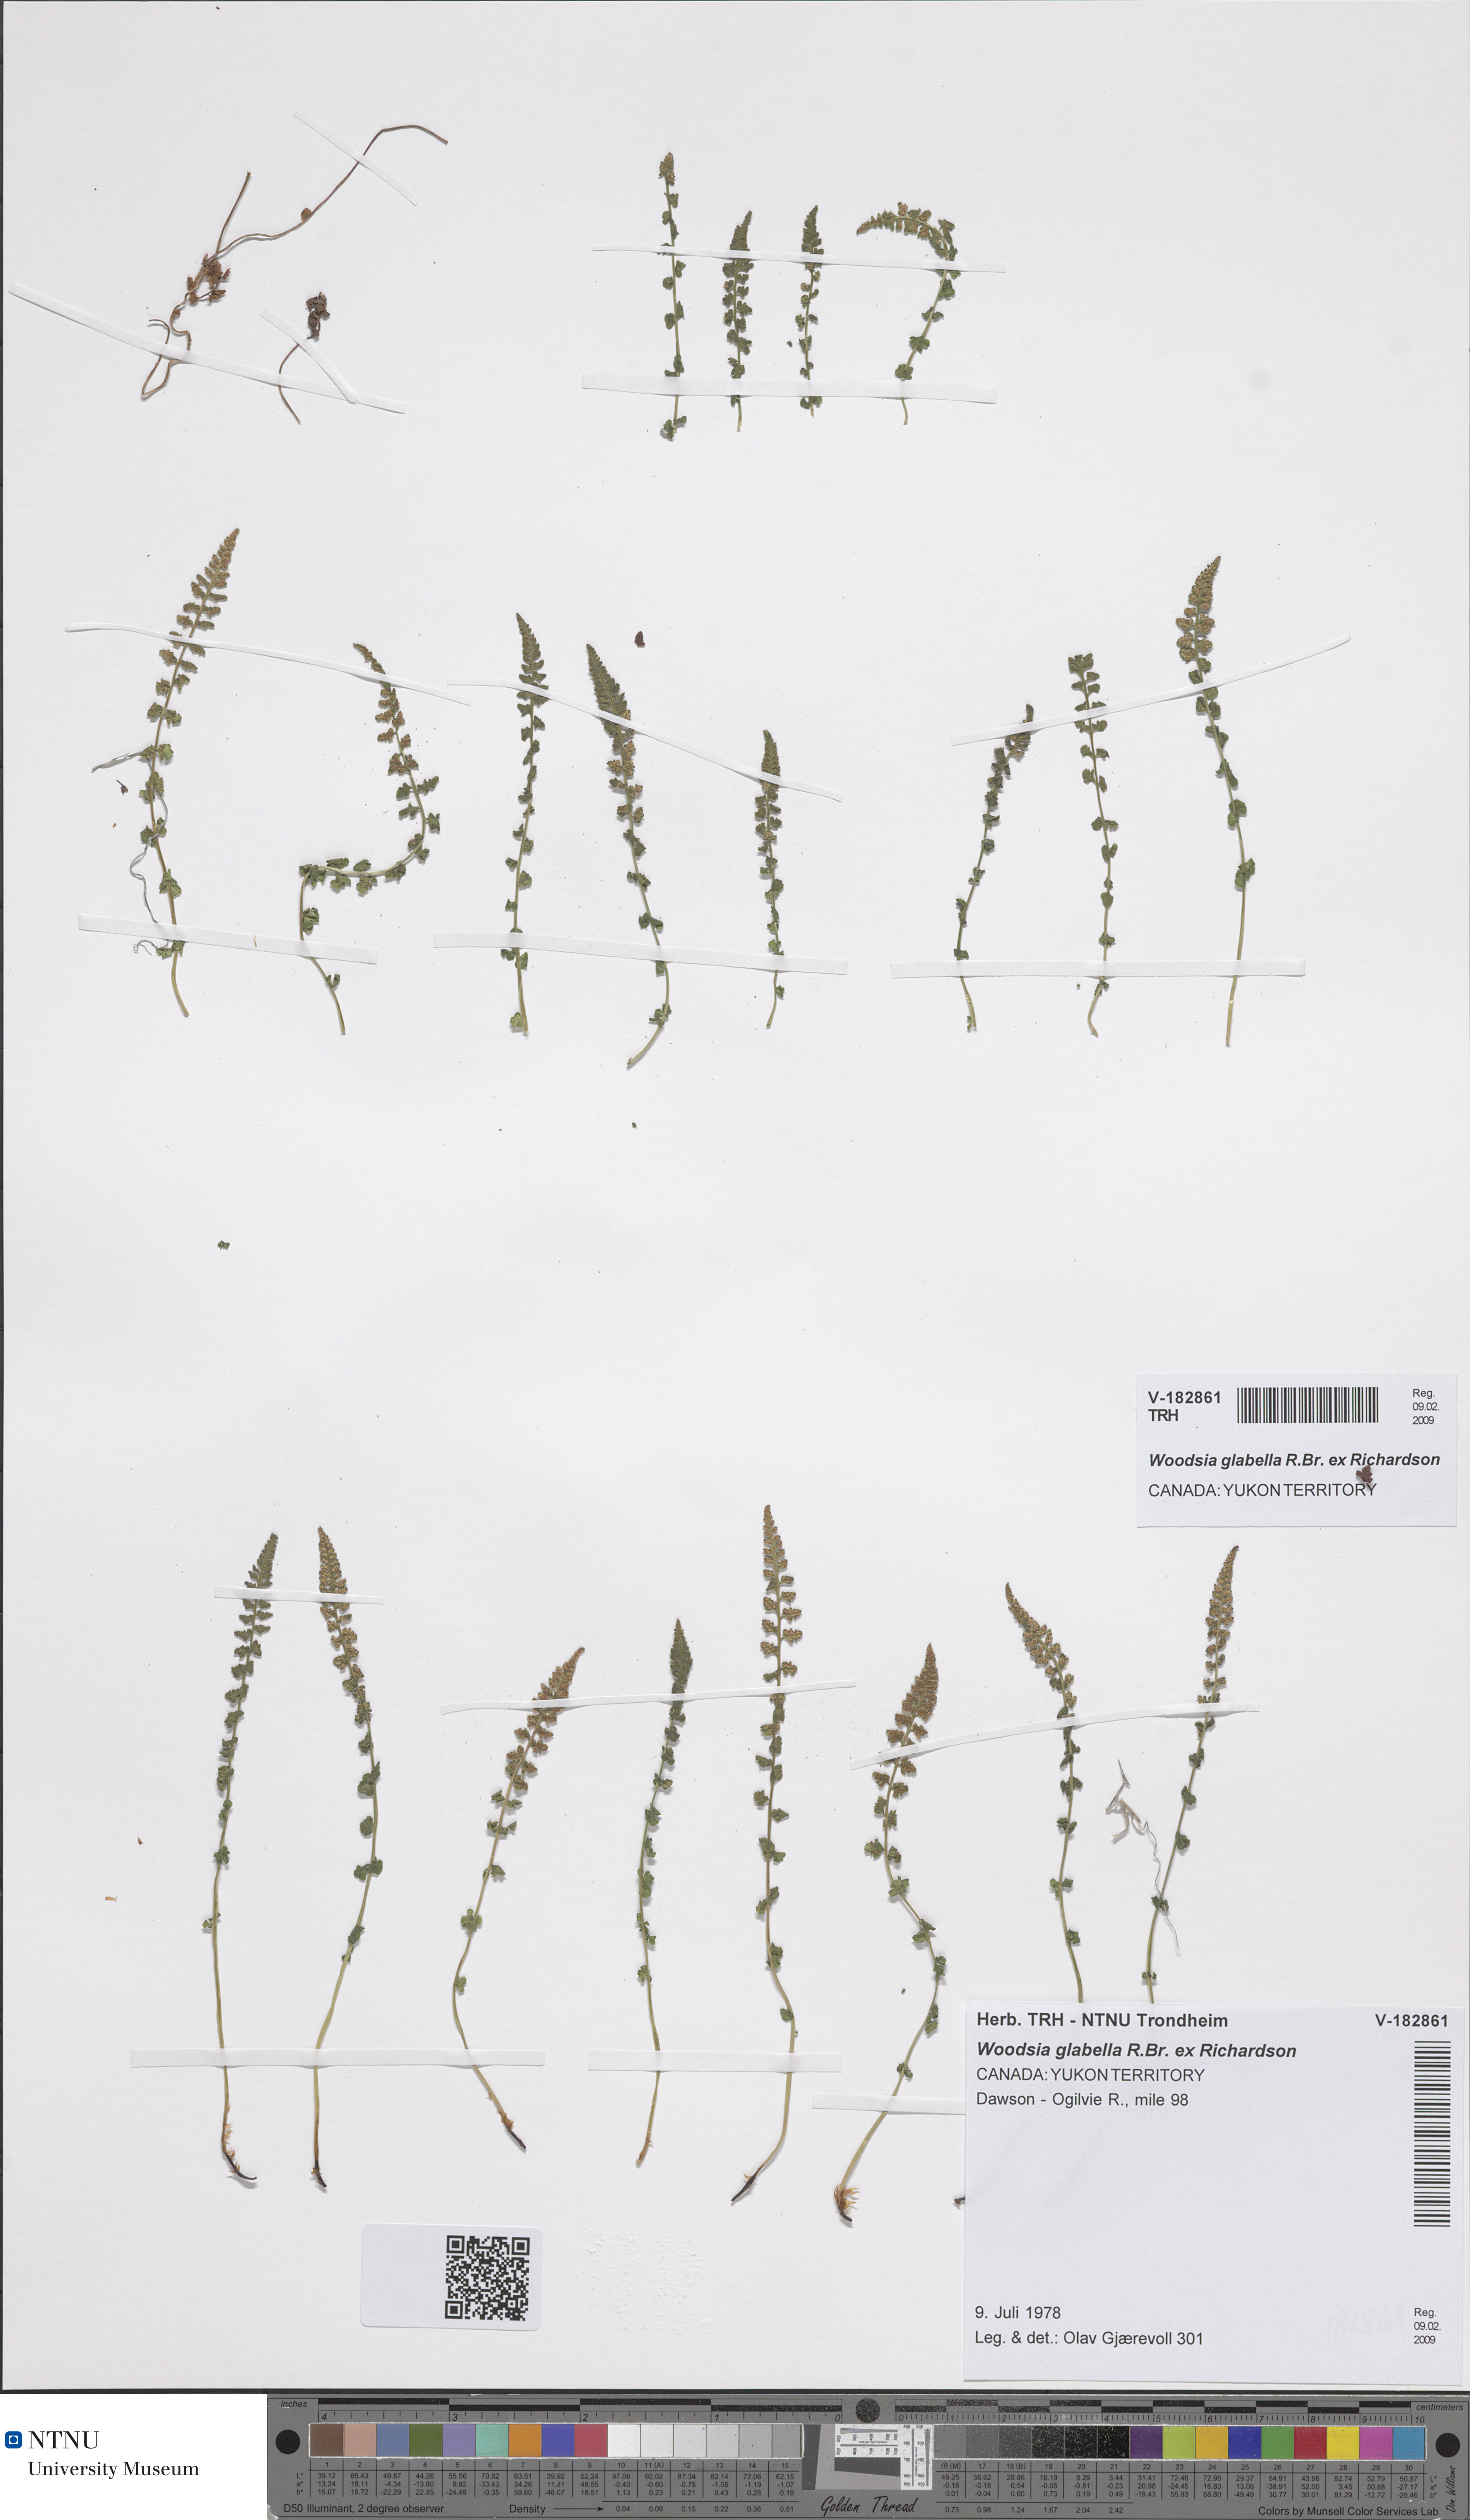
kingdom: Plantae
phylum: Tracheophyta
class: Polypodiopsida
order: Polypodiales
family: Woodsiaceae
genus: Woodsia
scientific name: Woodsia glabella
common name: Smooth woodsia
